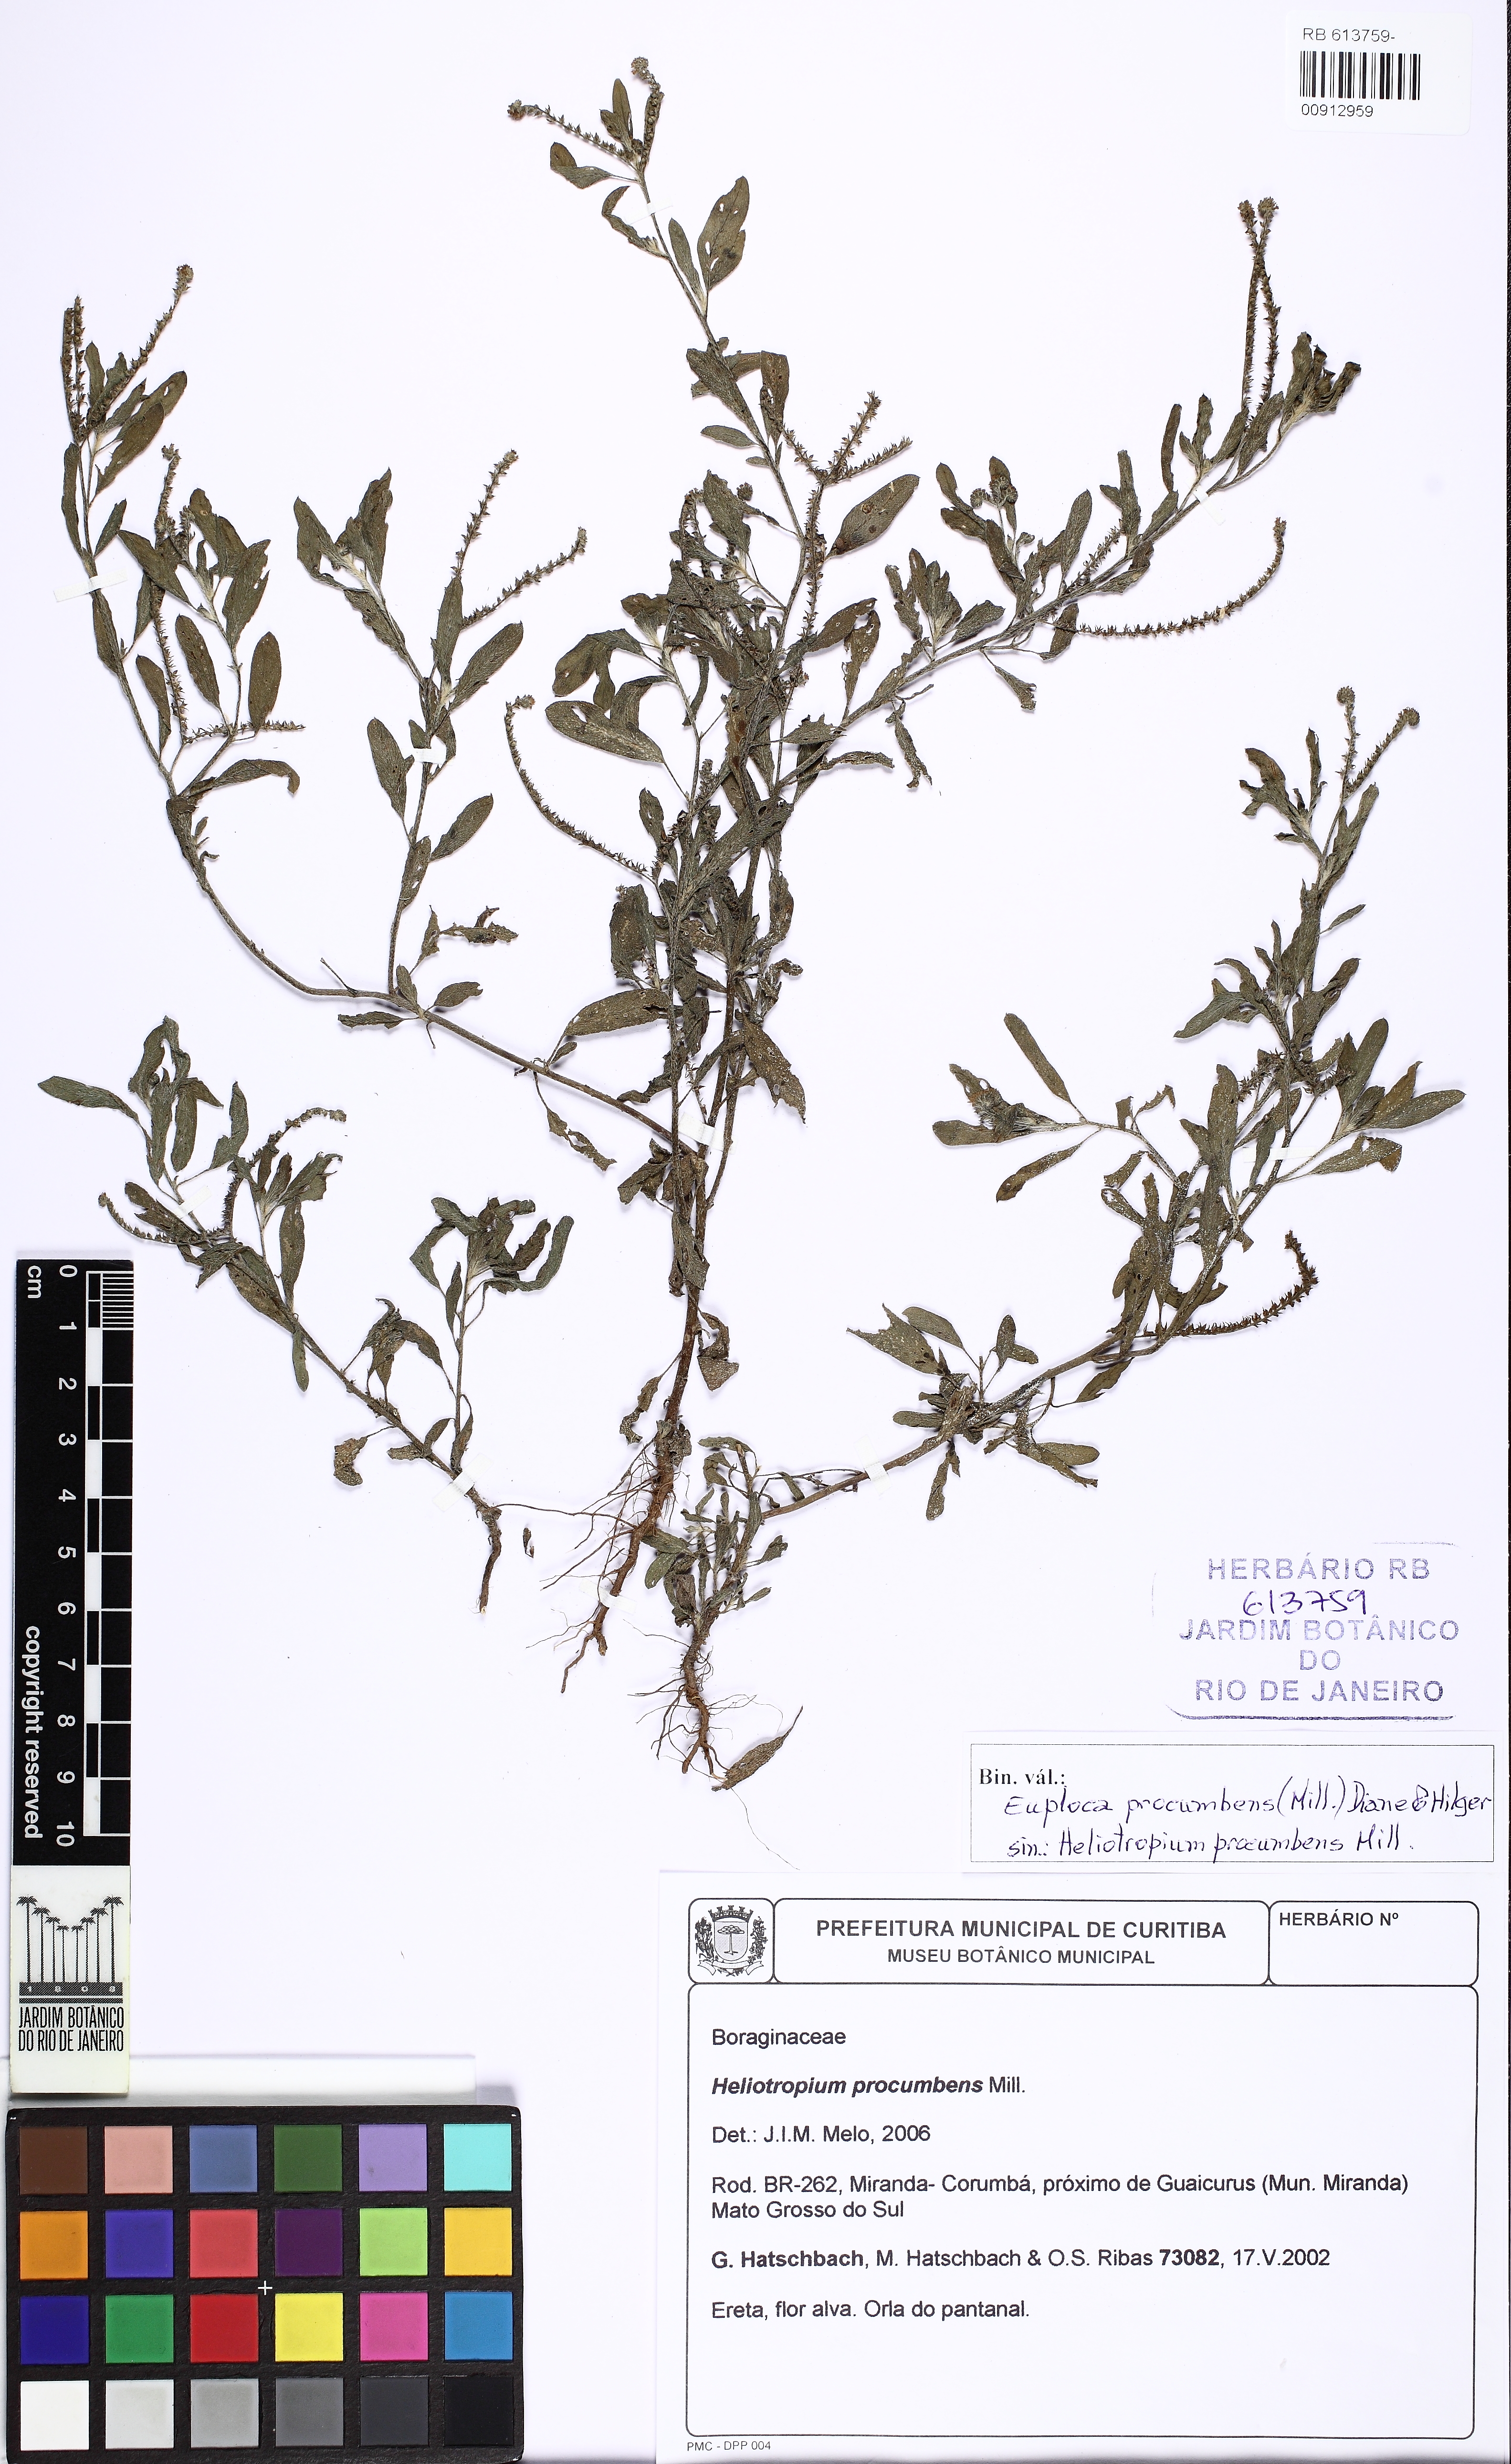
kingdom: Plantae
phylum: Tracheophyta
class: Magnoliopsida
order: Boraginales
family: Heliotropiaceae
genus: Euploca
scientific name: Euploca procumbens
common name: Fourspike heliotrope
